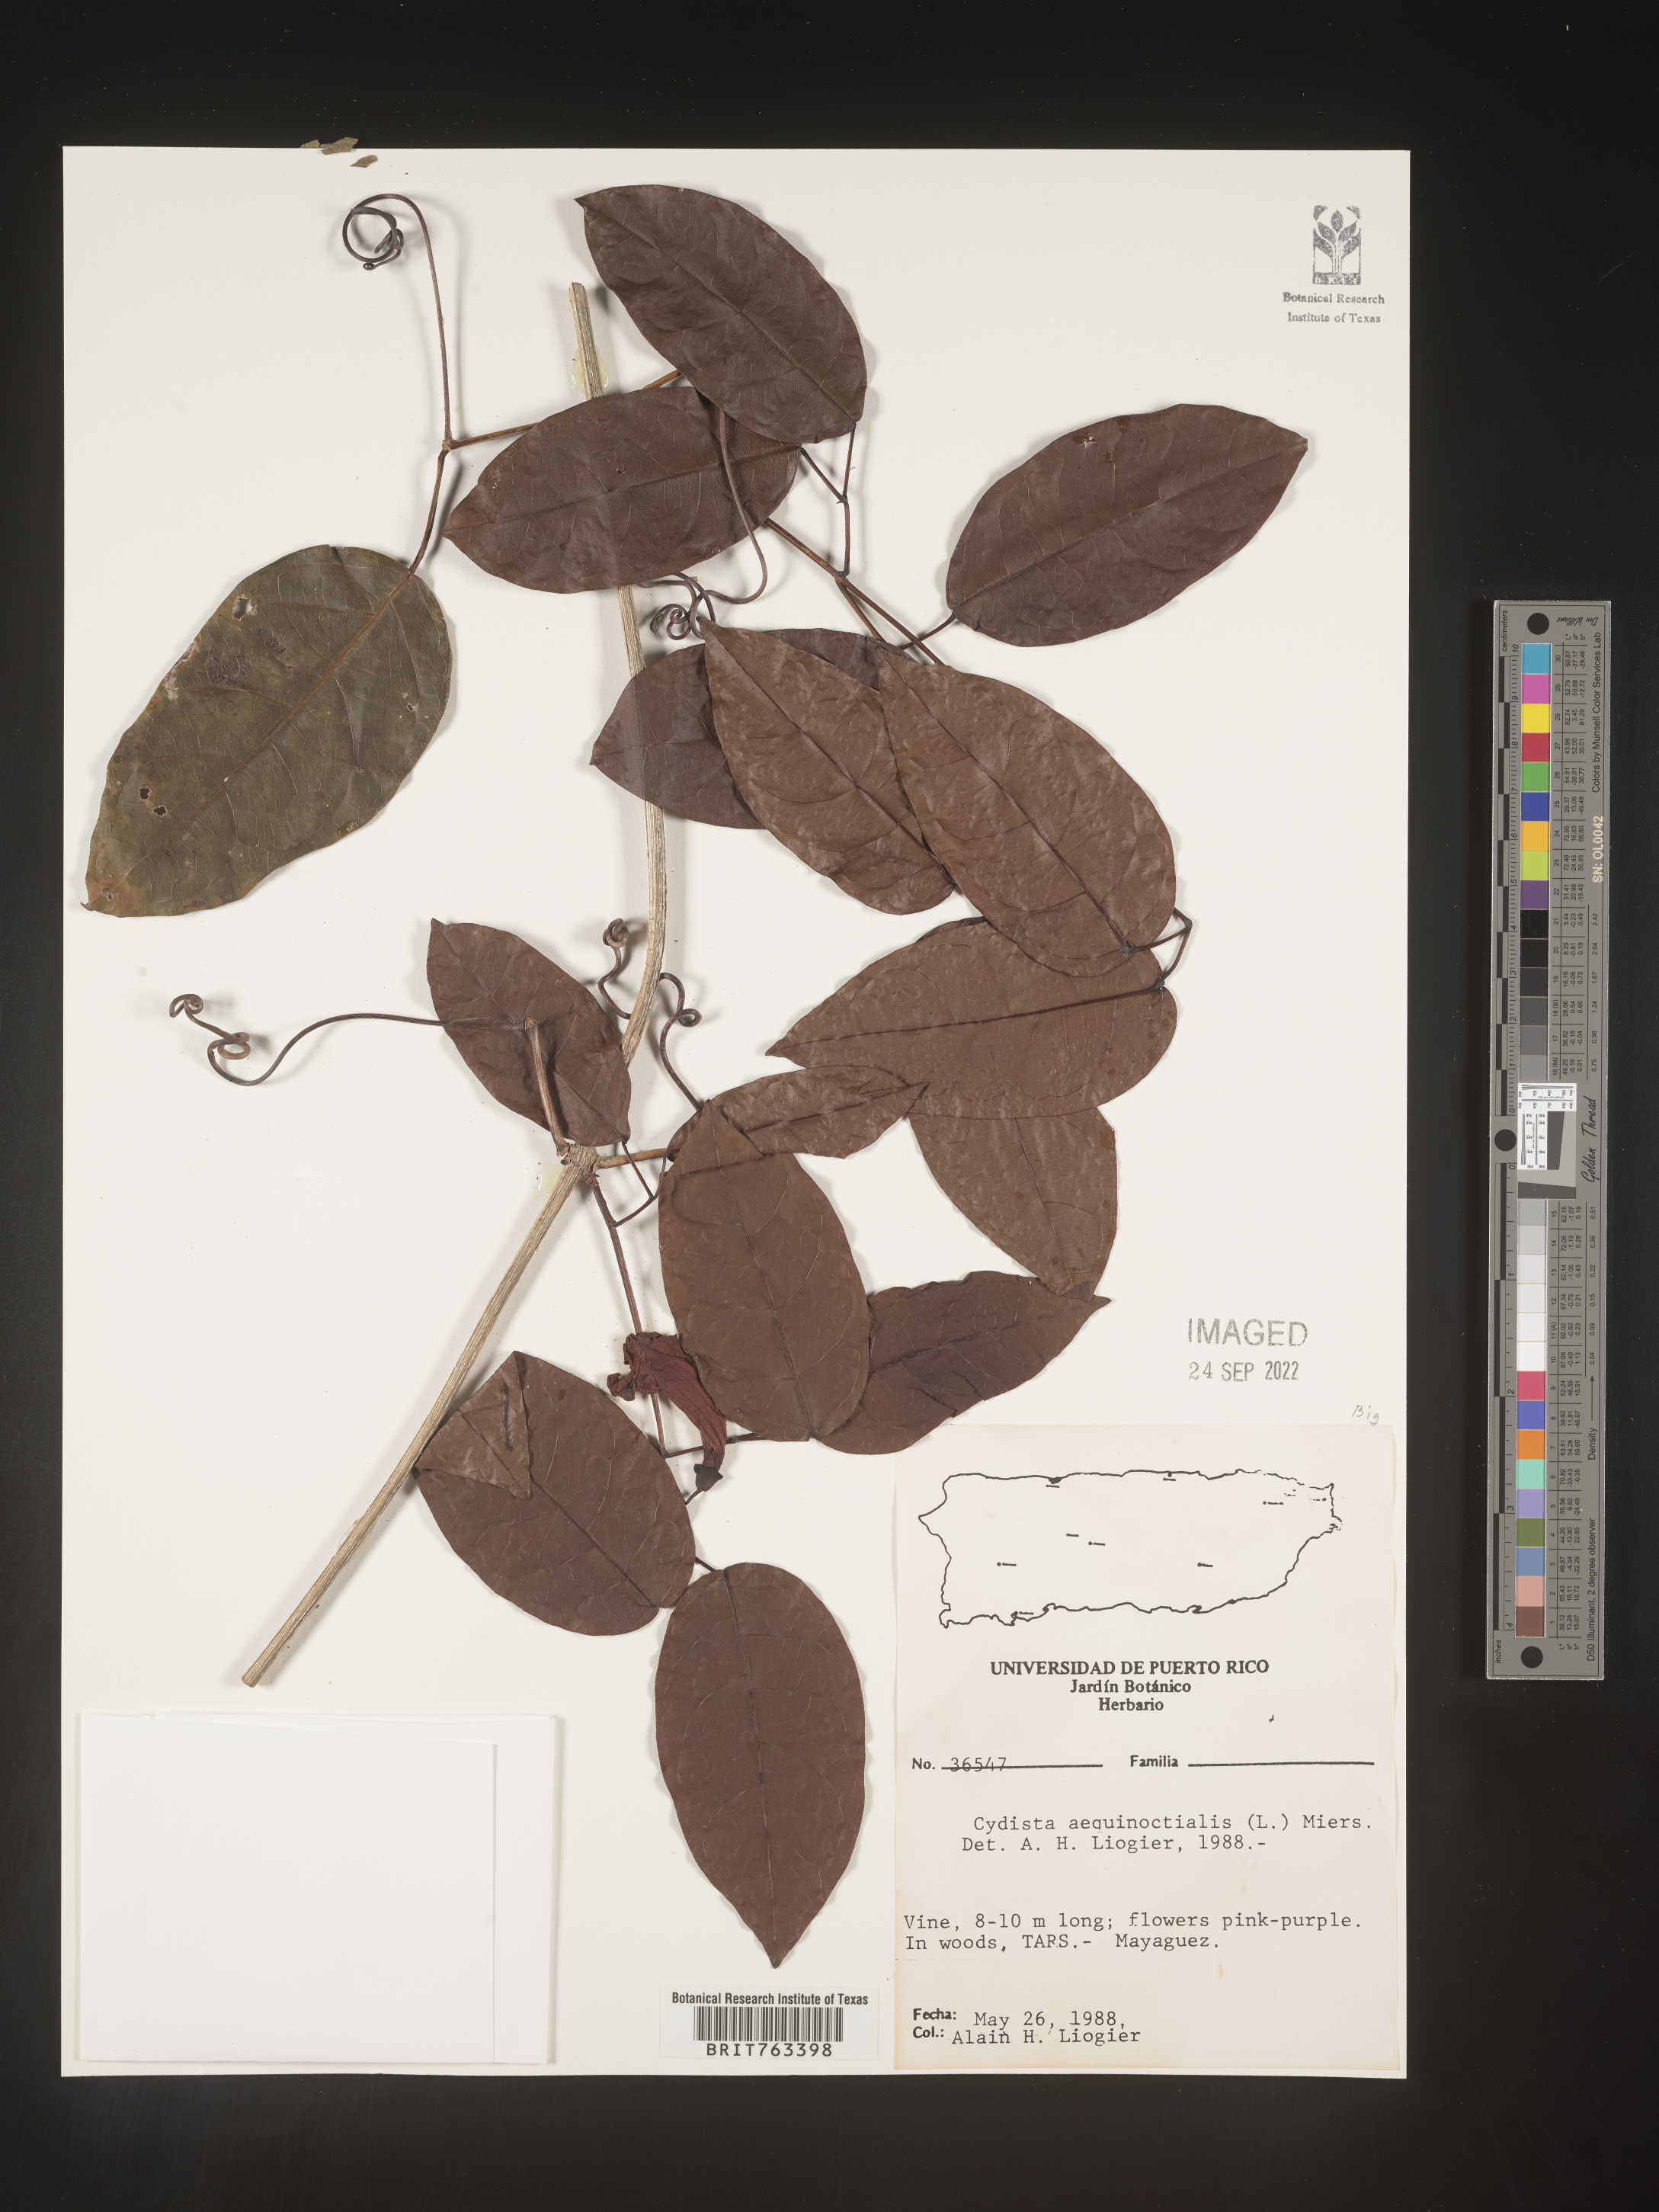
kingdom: Plantae
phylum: Tracheophyta
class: Magnoliopsida
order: Lamiales
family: Bignoniaceae
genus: Bignonia
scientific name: Bignonia
